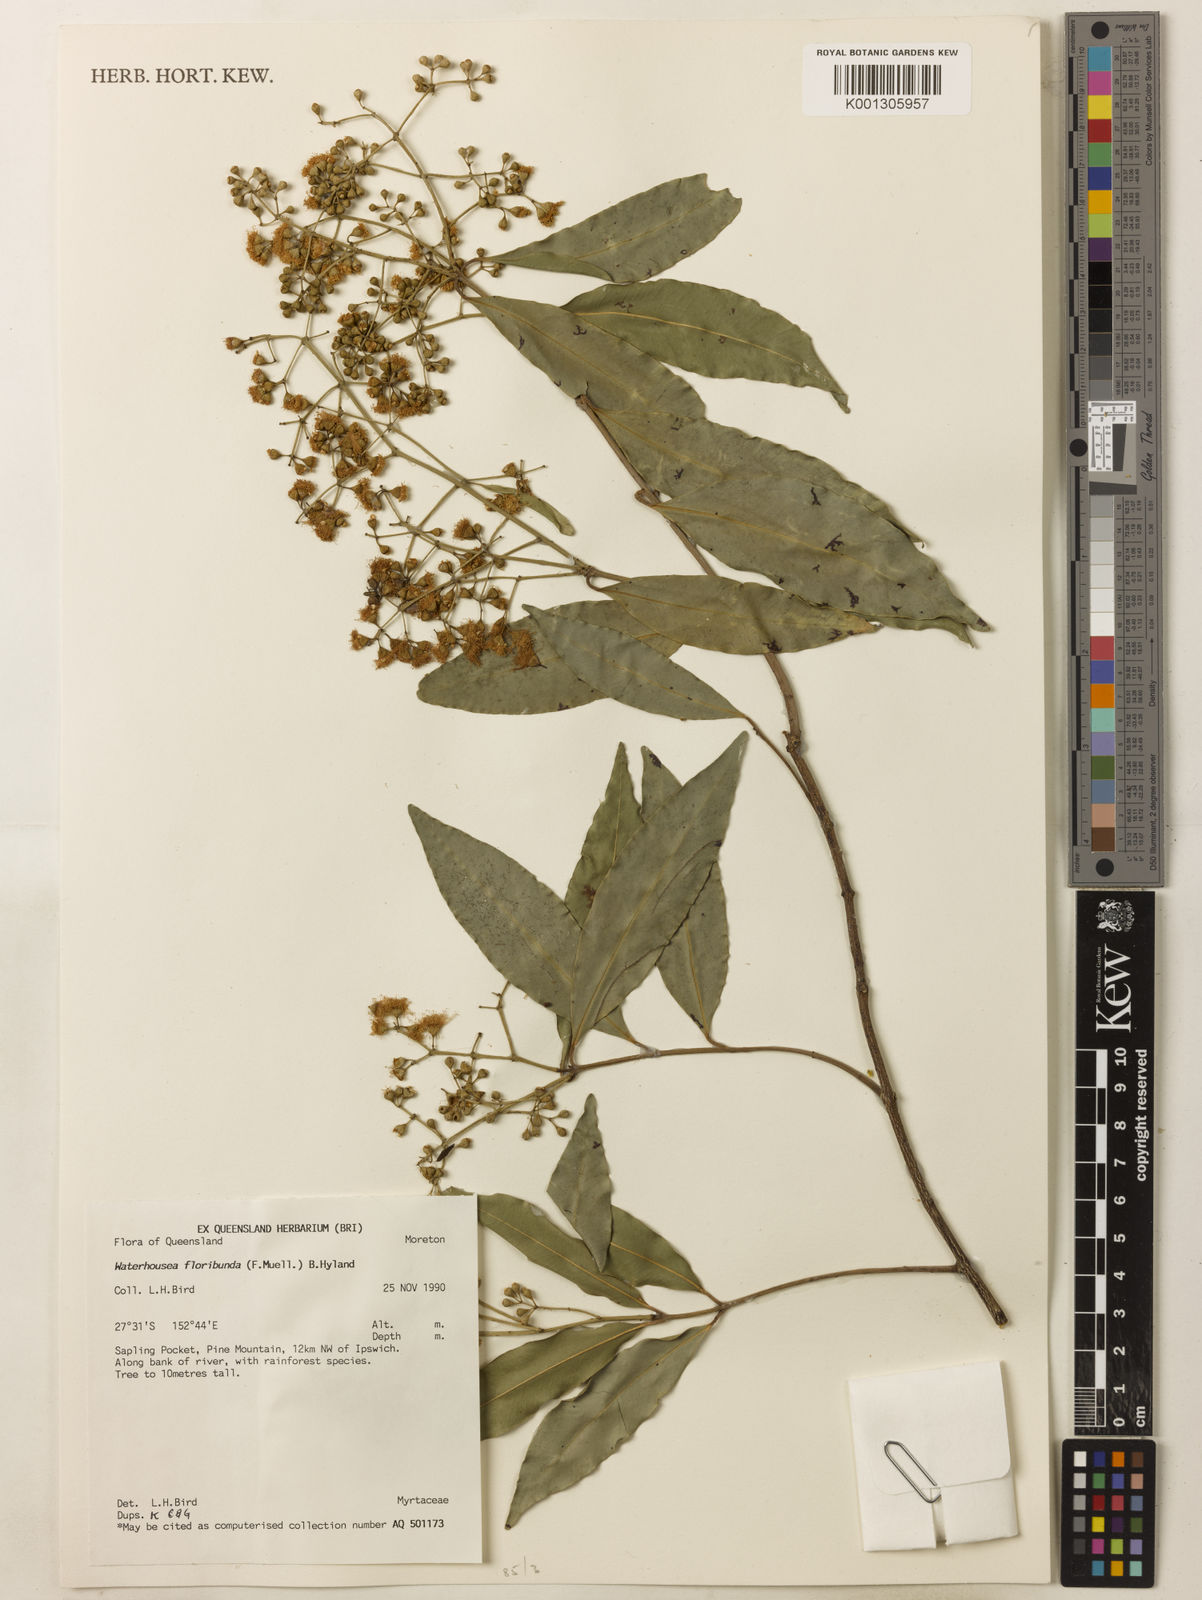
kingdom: Plantae
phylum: Tracheophyta
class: Magnoliopsida
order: Myrtales
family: Myrtaceae
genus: Syzygium
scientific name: Syzygium floribundum
